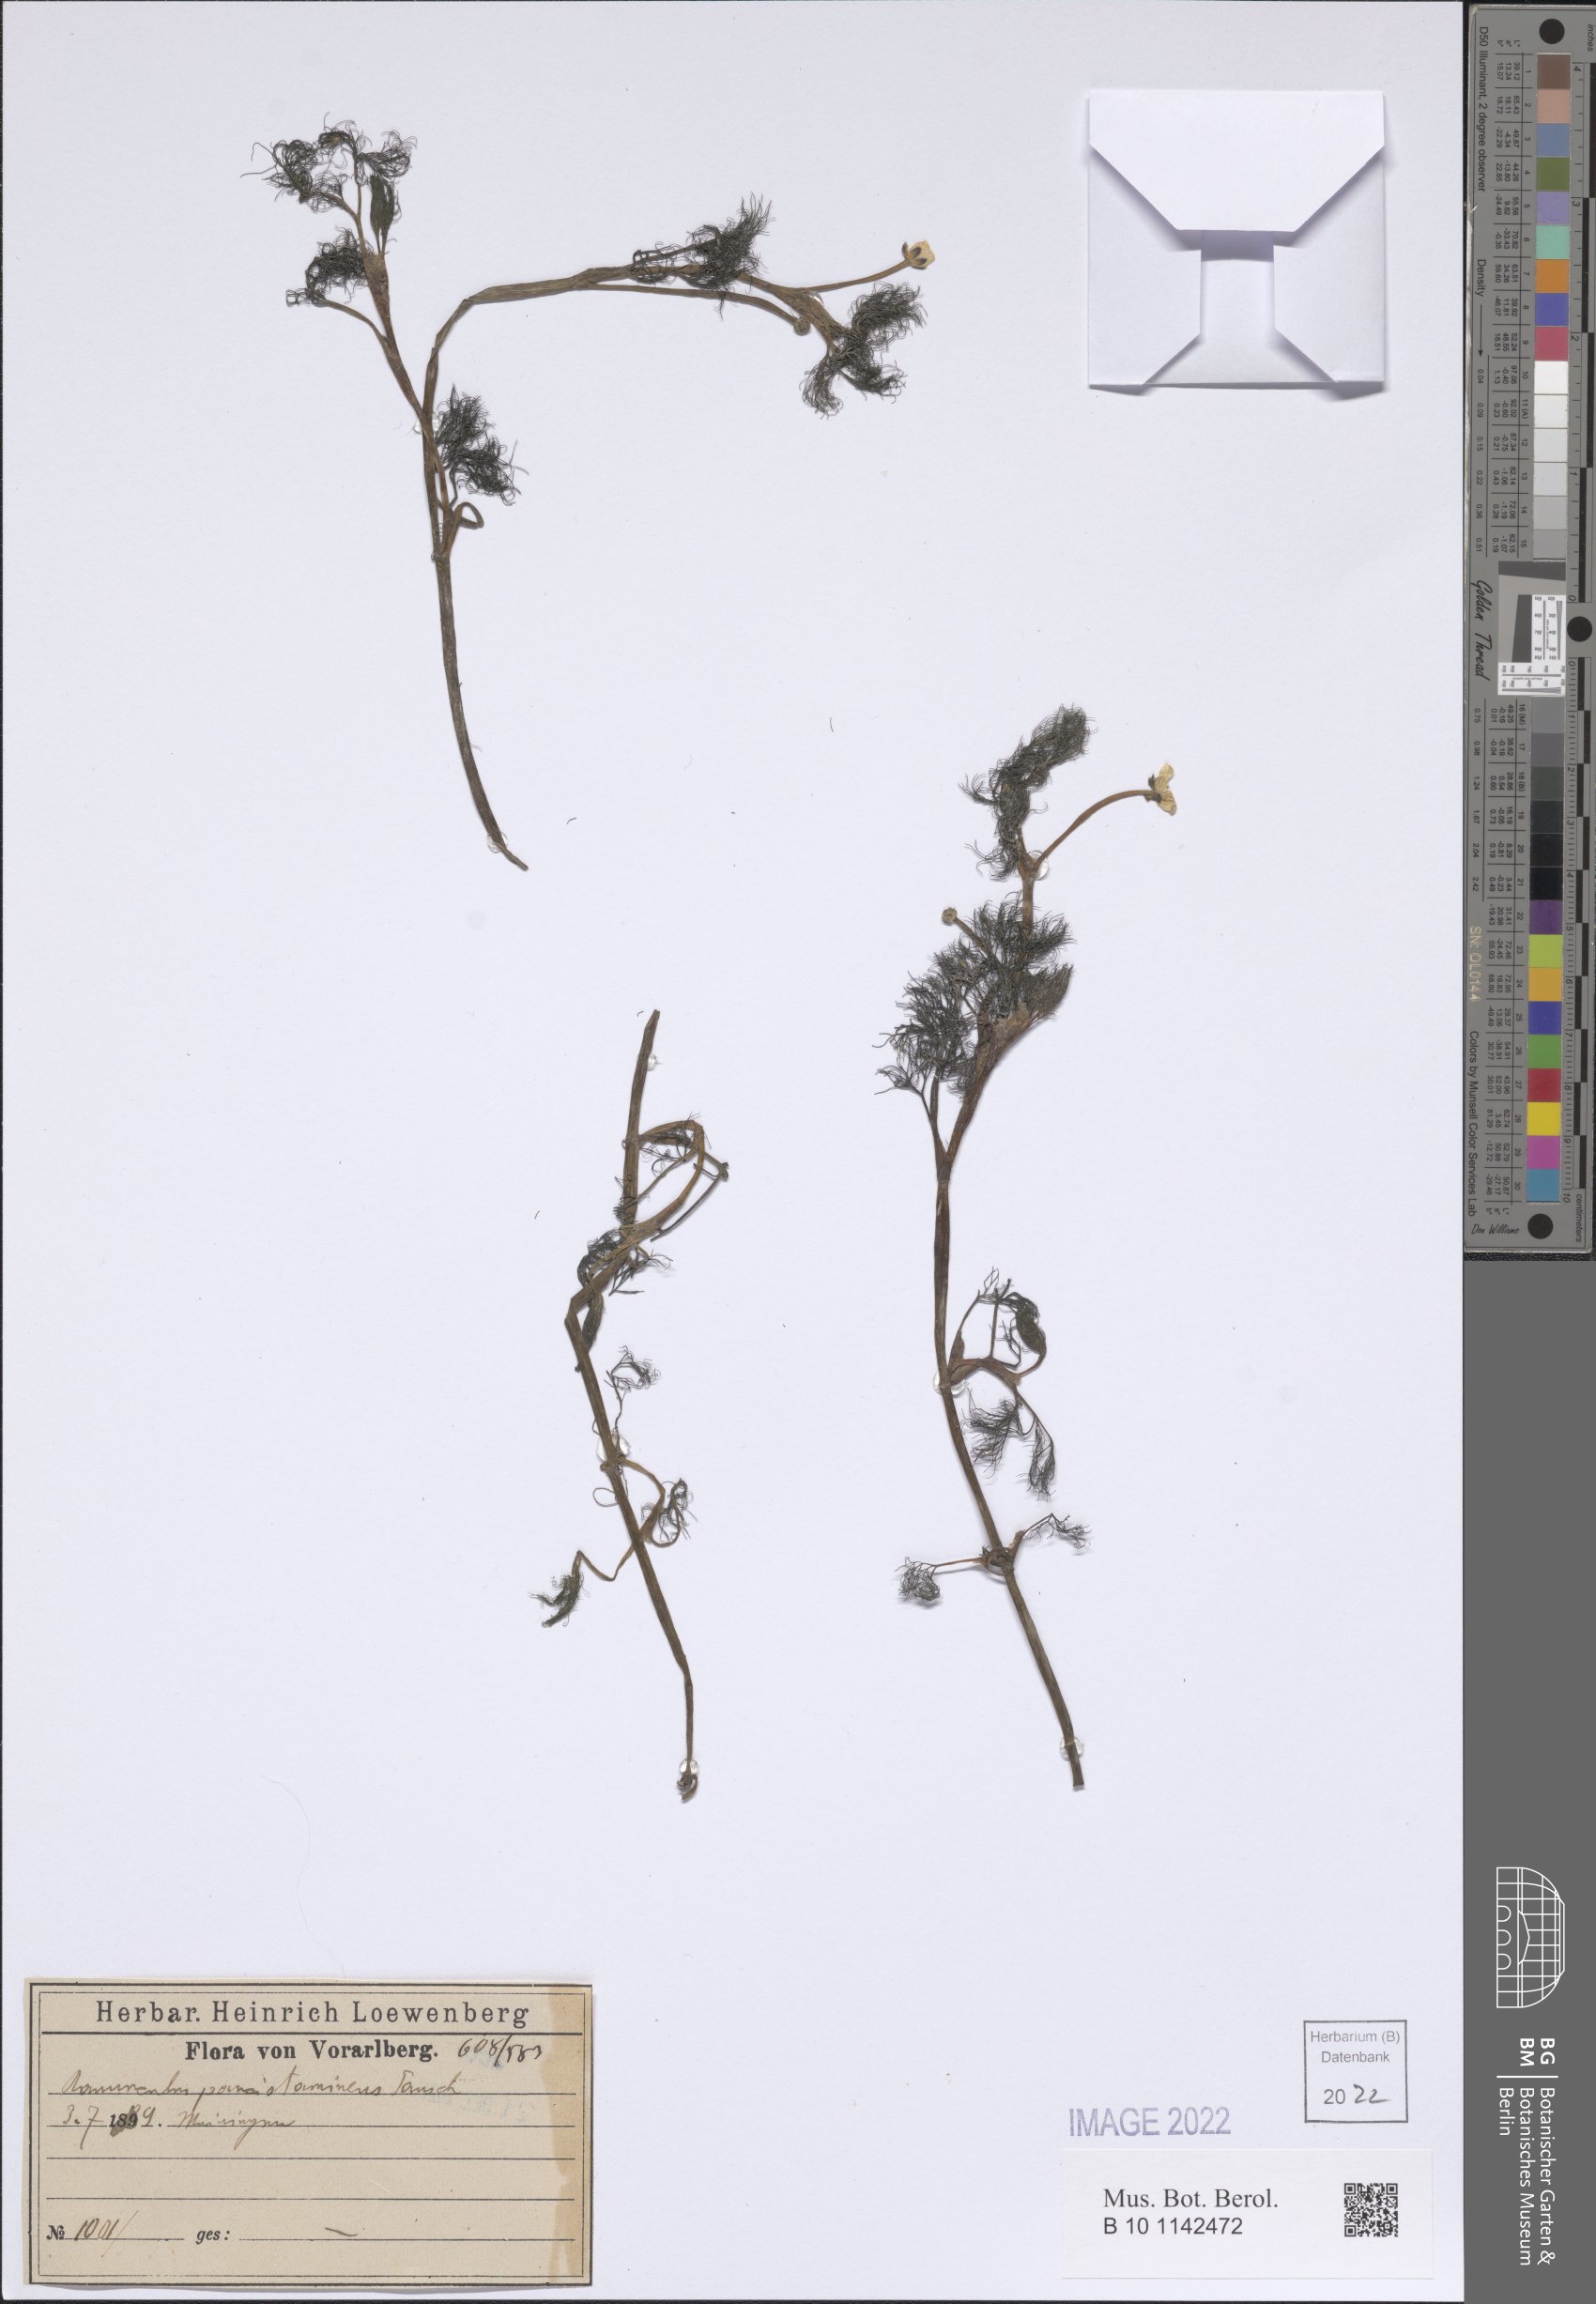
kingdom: Plantae
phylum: Tracheophyta
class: Magnoliopsida
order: Ranunculales
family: Ranunculaceae
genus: Ranunculus
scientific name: Ranunculus trichophyllus
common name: Thread-leaved water-crowfoot
